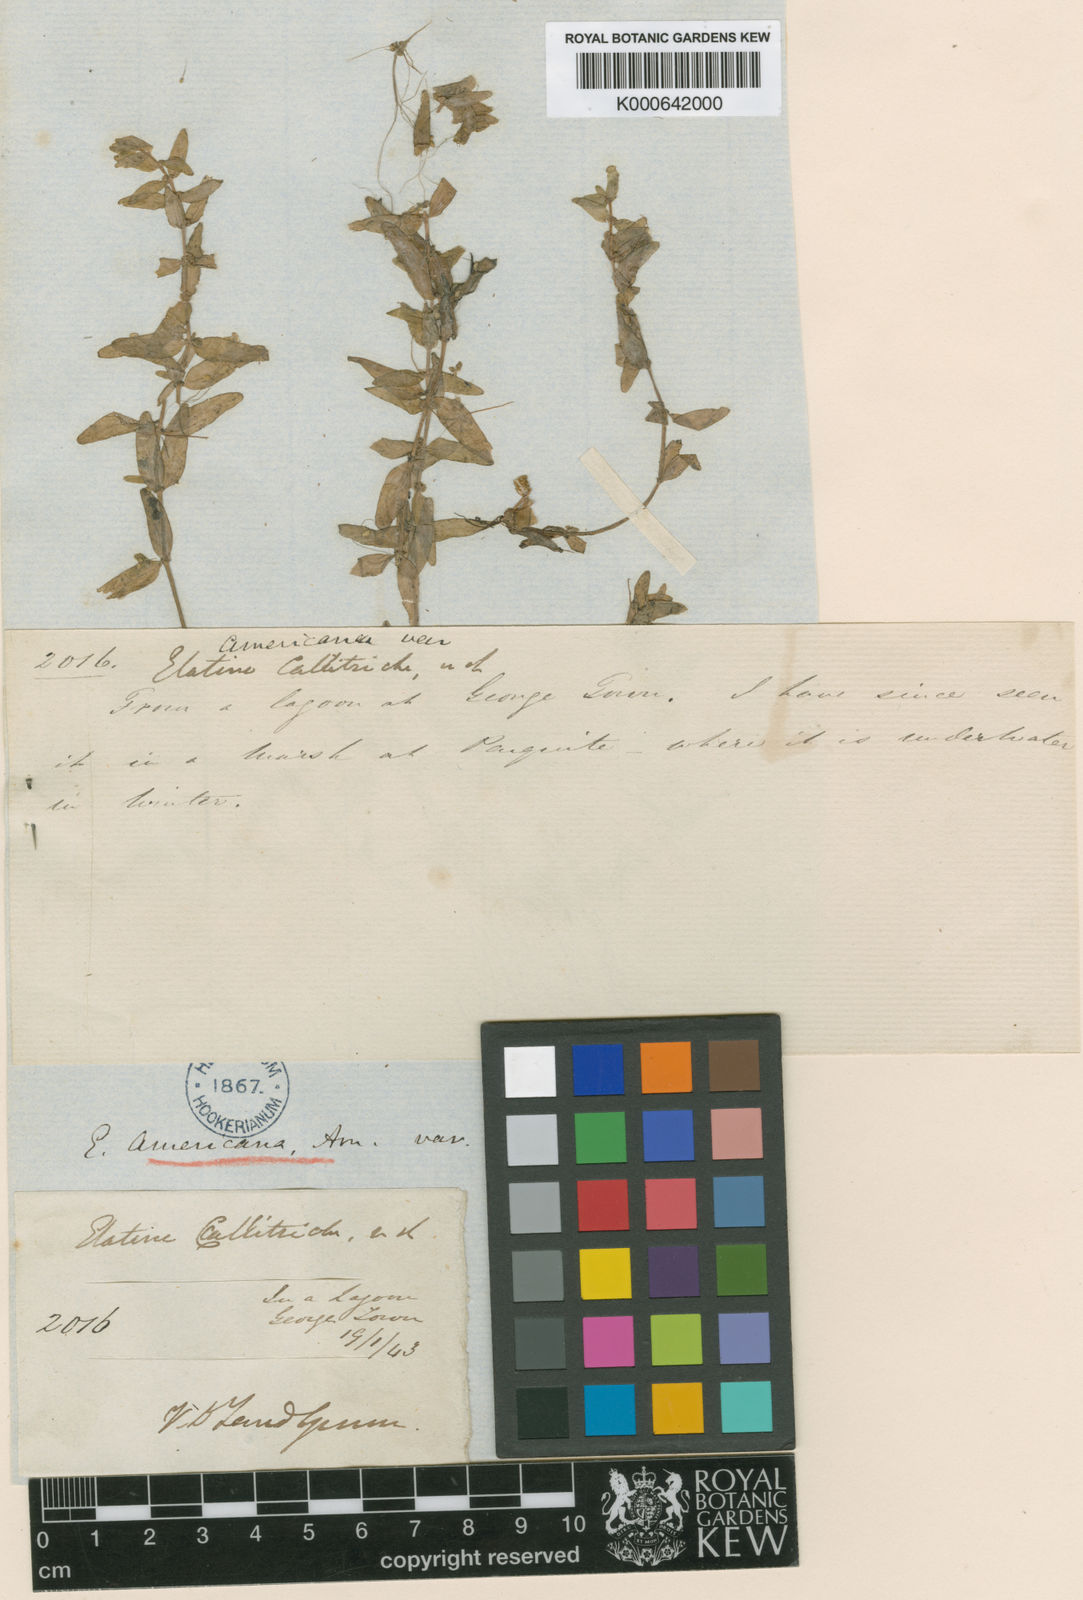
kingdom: Plantae
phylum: Tracheophyta
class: Magnoliopsida
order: Malpighiales
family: Elatinaceae
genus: Elatine
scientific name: Elatine gratioloides
